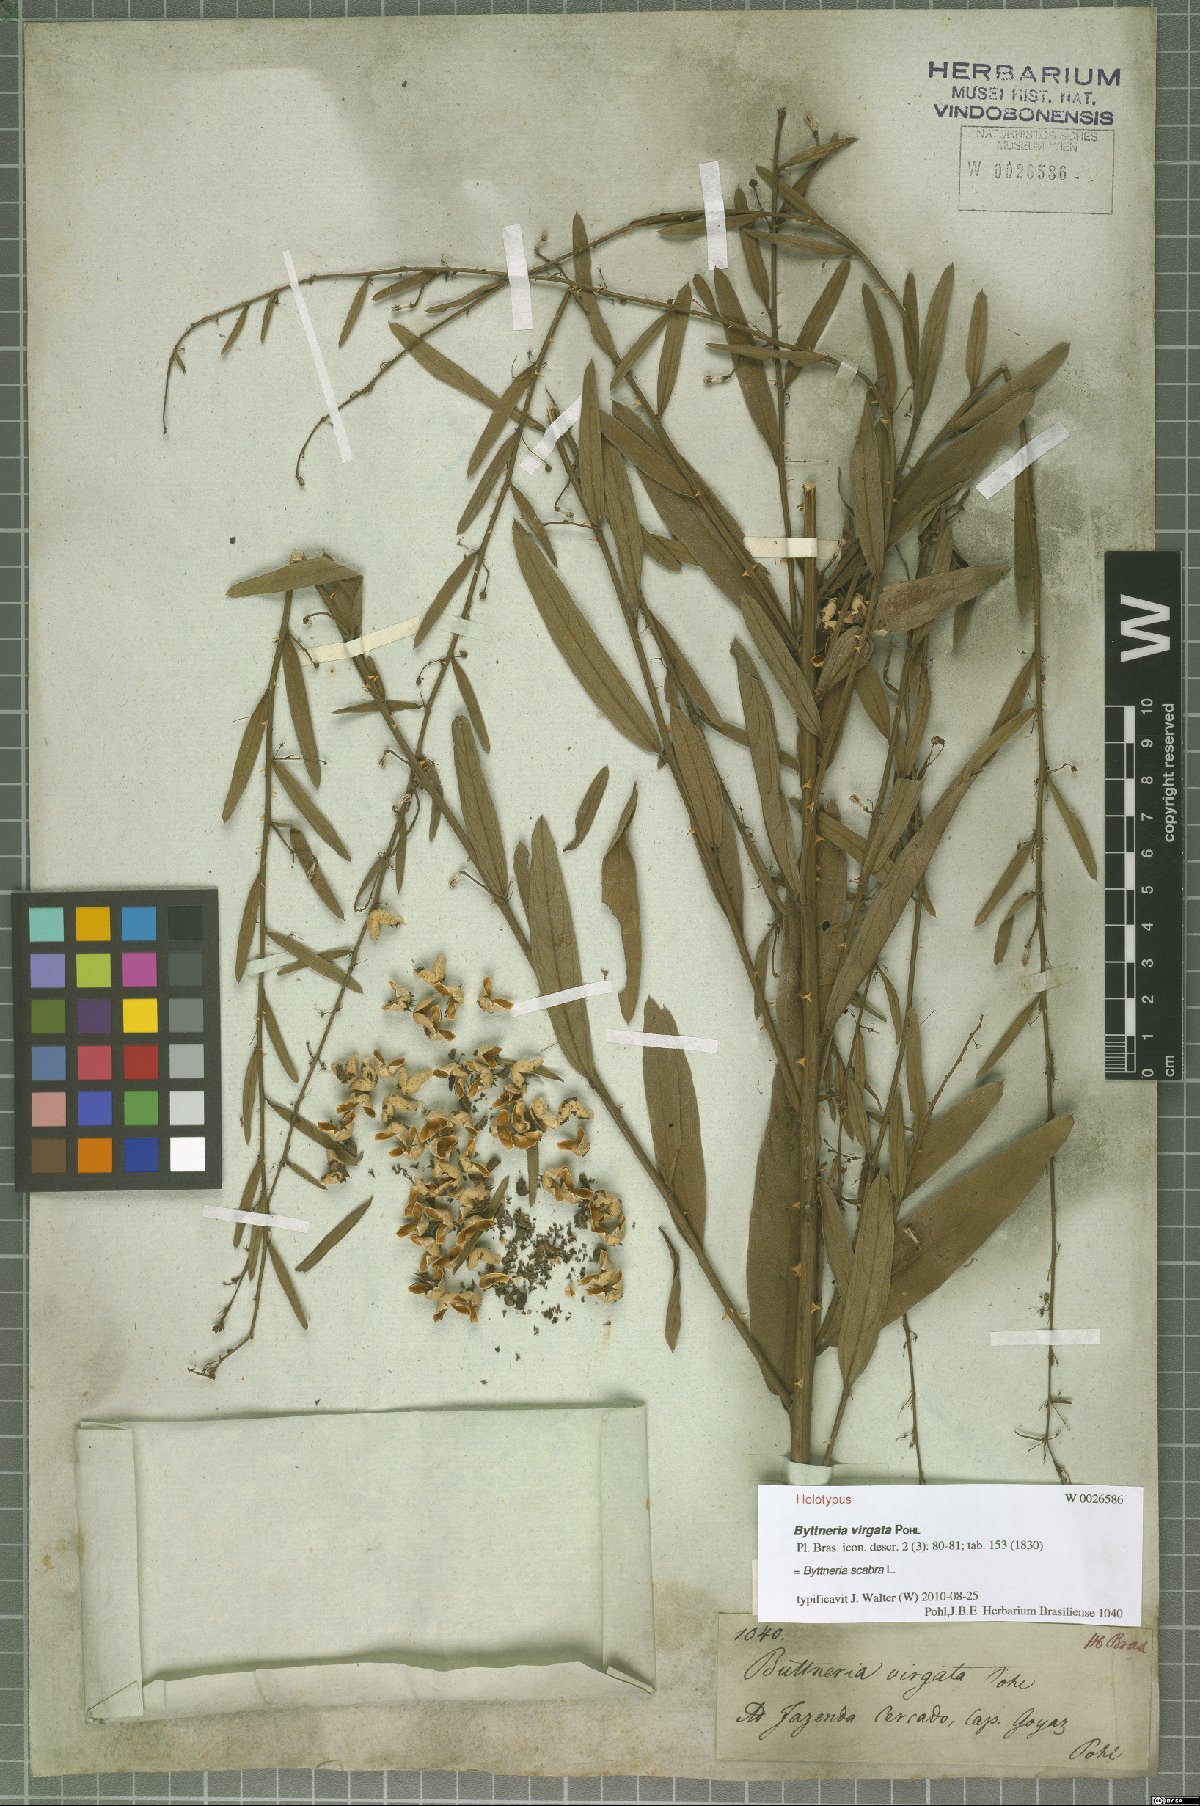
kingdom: Plantae
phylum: Tracheophyta
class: Magnoliopsida
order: Malvales
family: Malvaceae
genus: Byttneria
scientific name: Byttneria scabra
